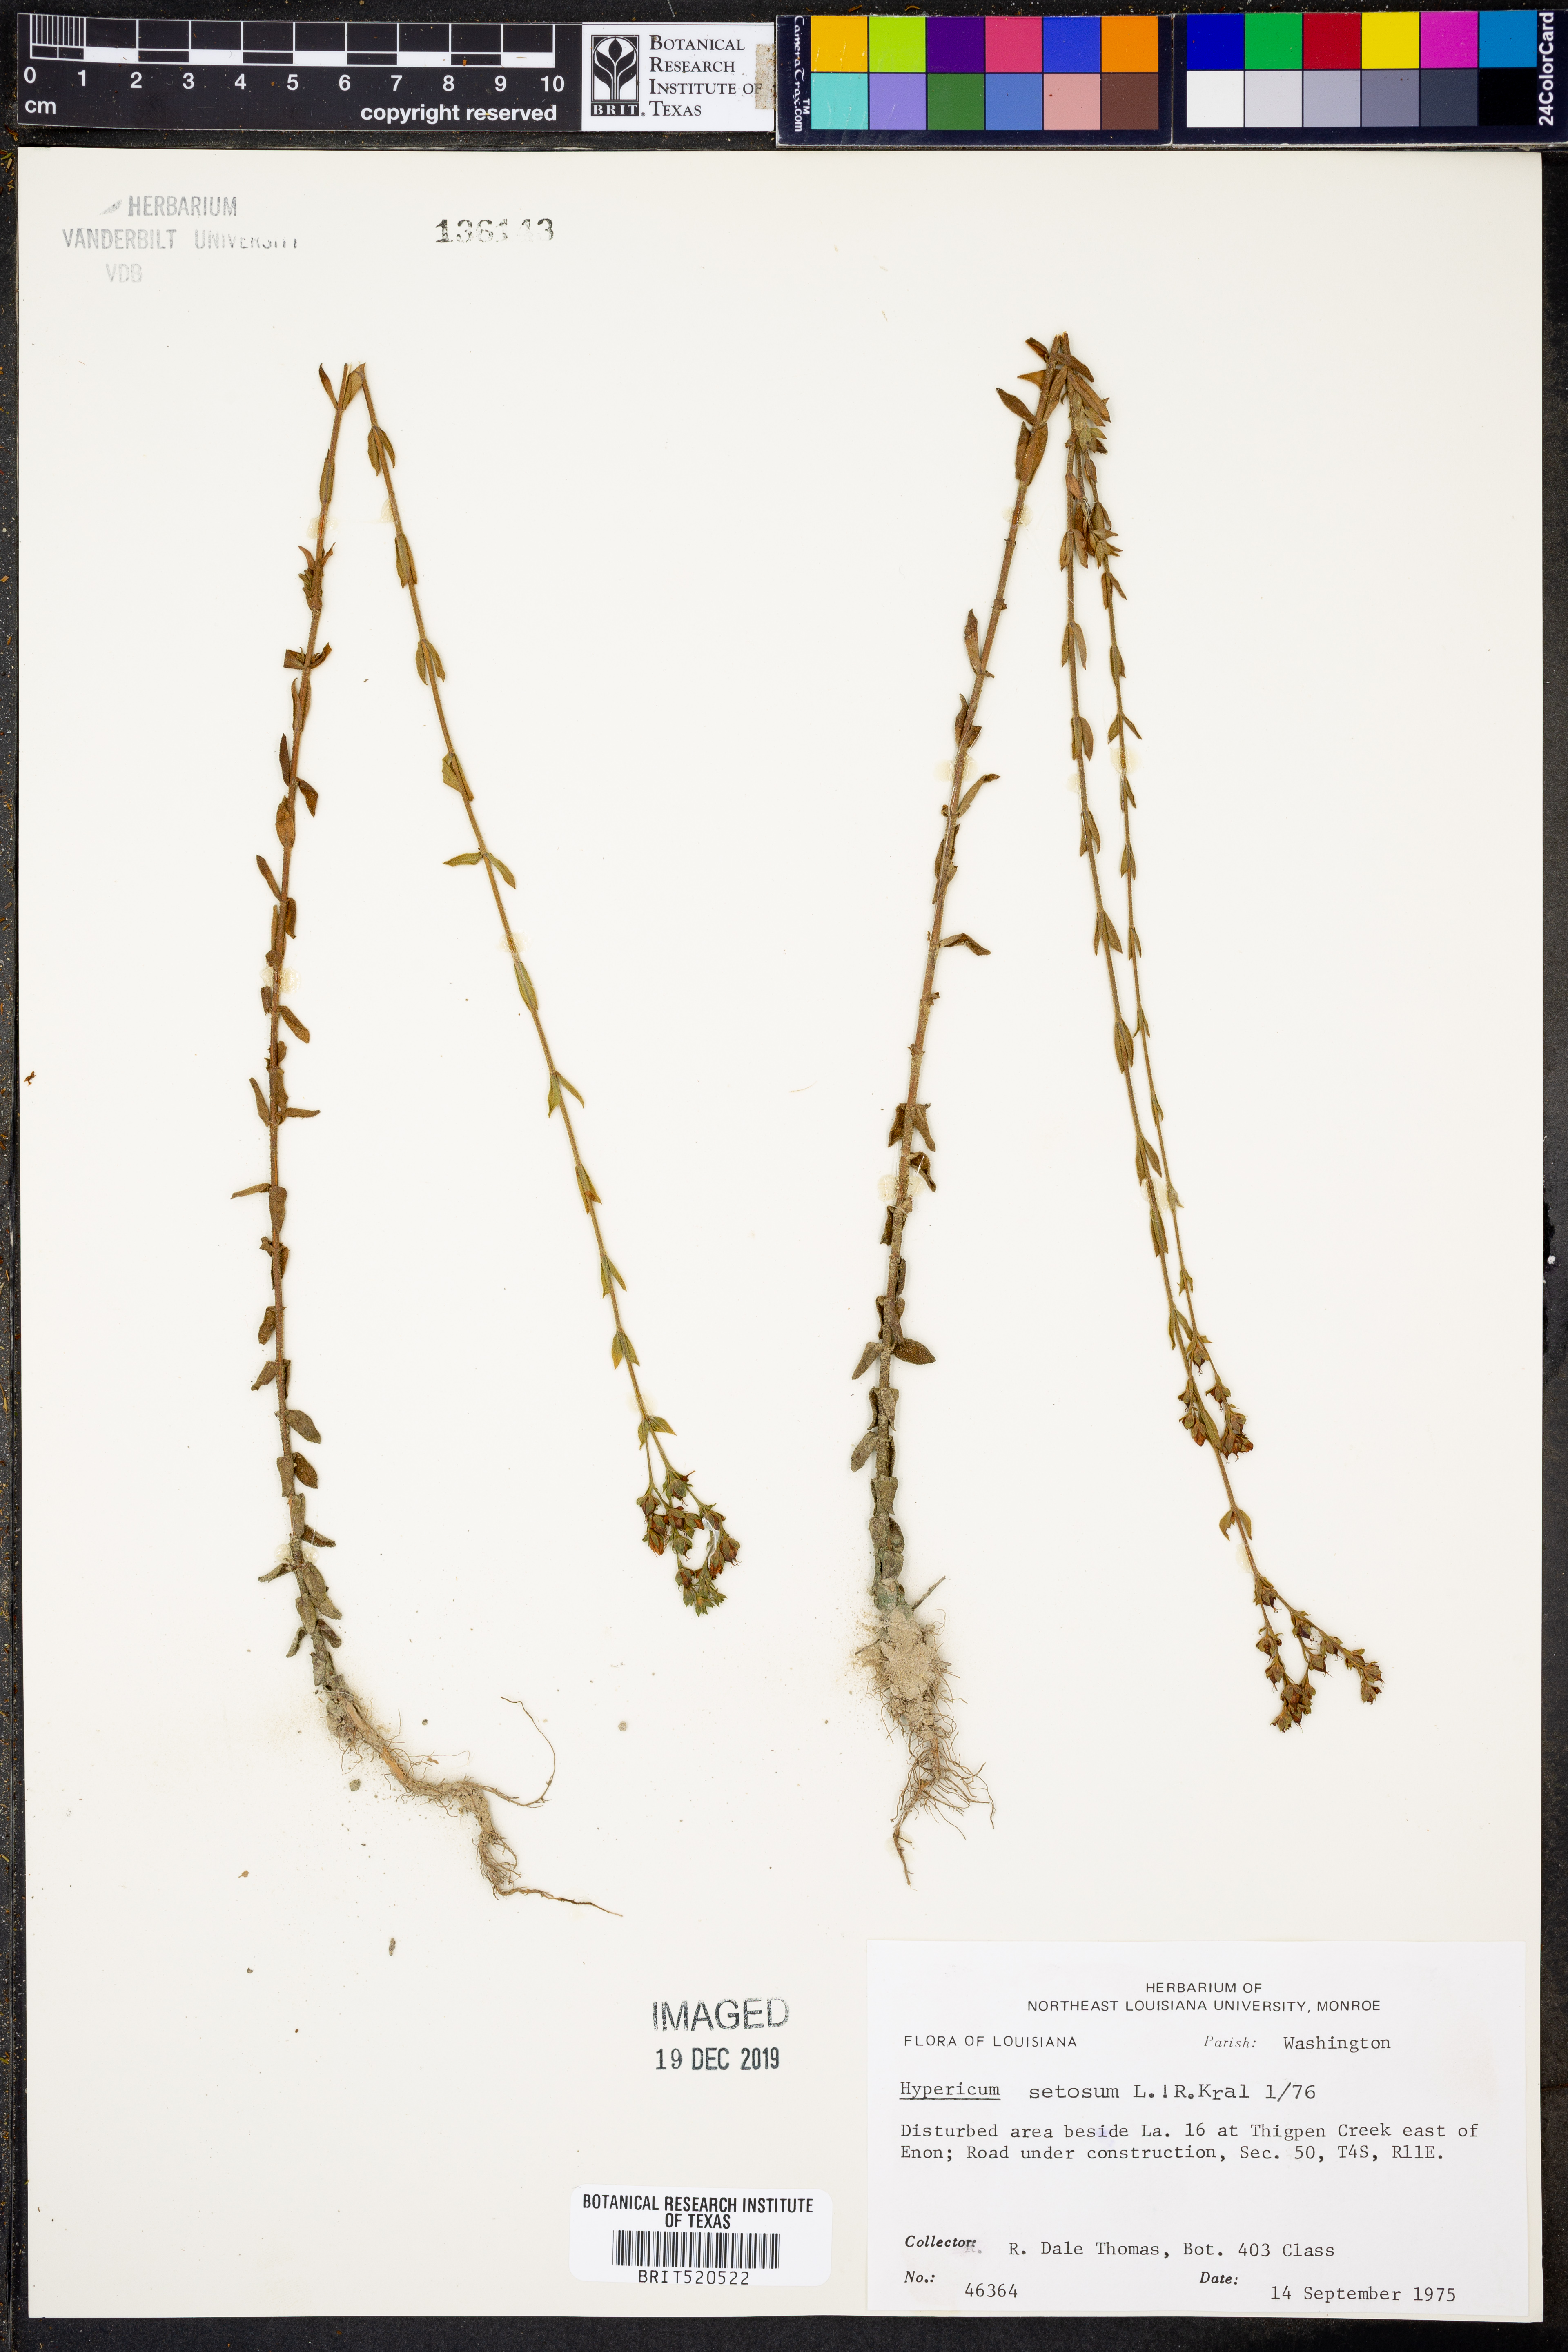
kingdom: Plantae
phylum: Tracheophyta
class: Magnoliopsida
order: Malpighiales
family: Hypericaceae
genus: Hypericum
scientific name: Hypericum setosum
